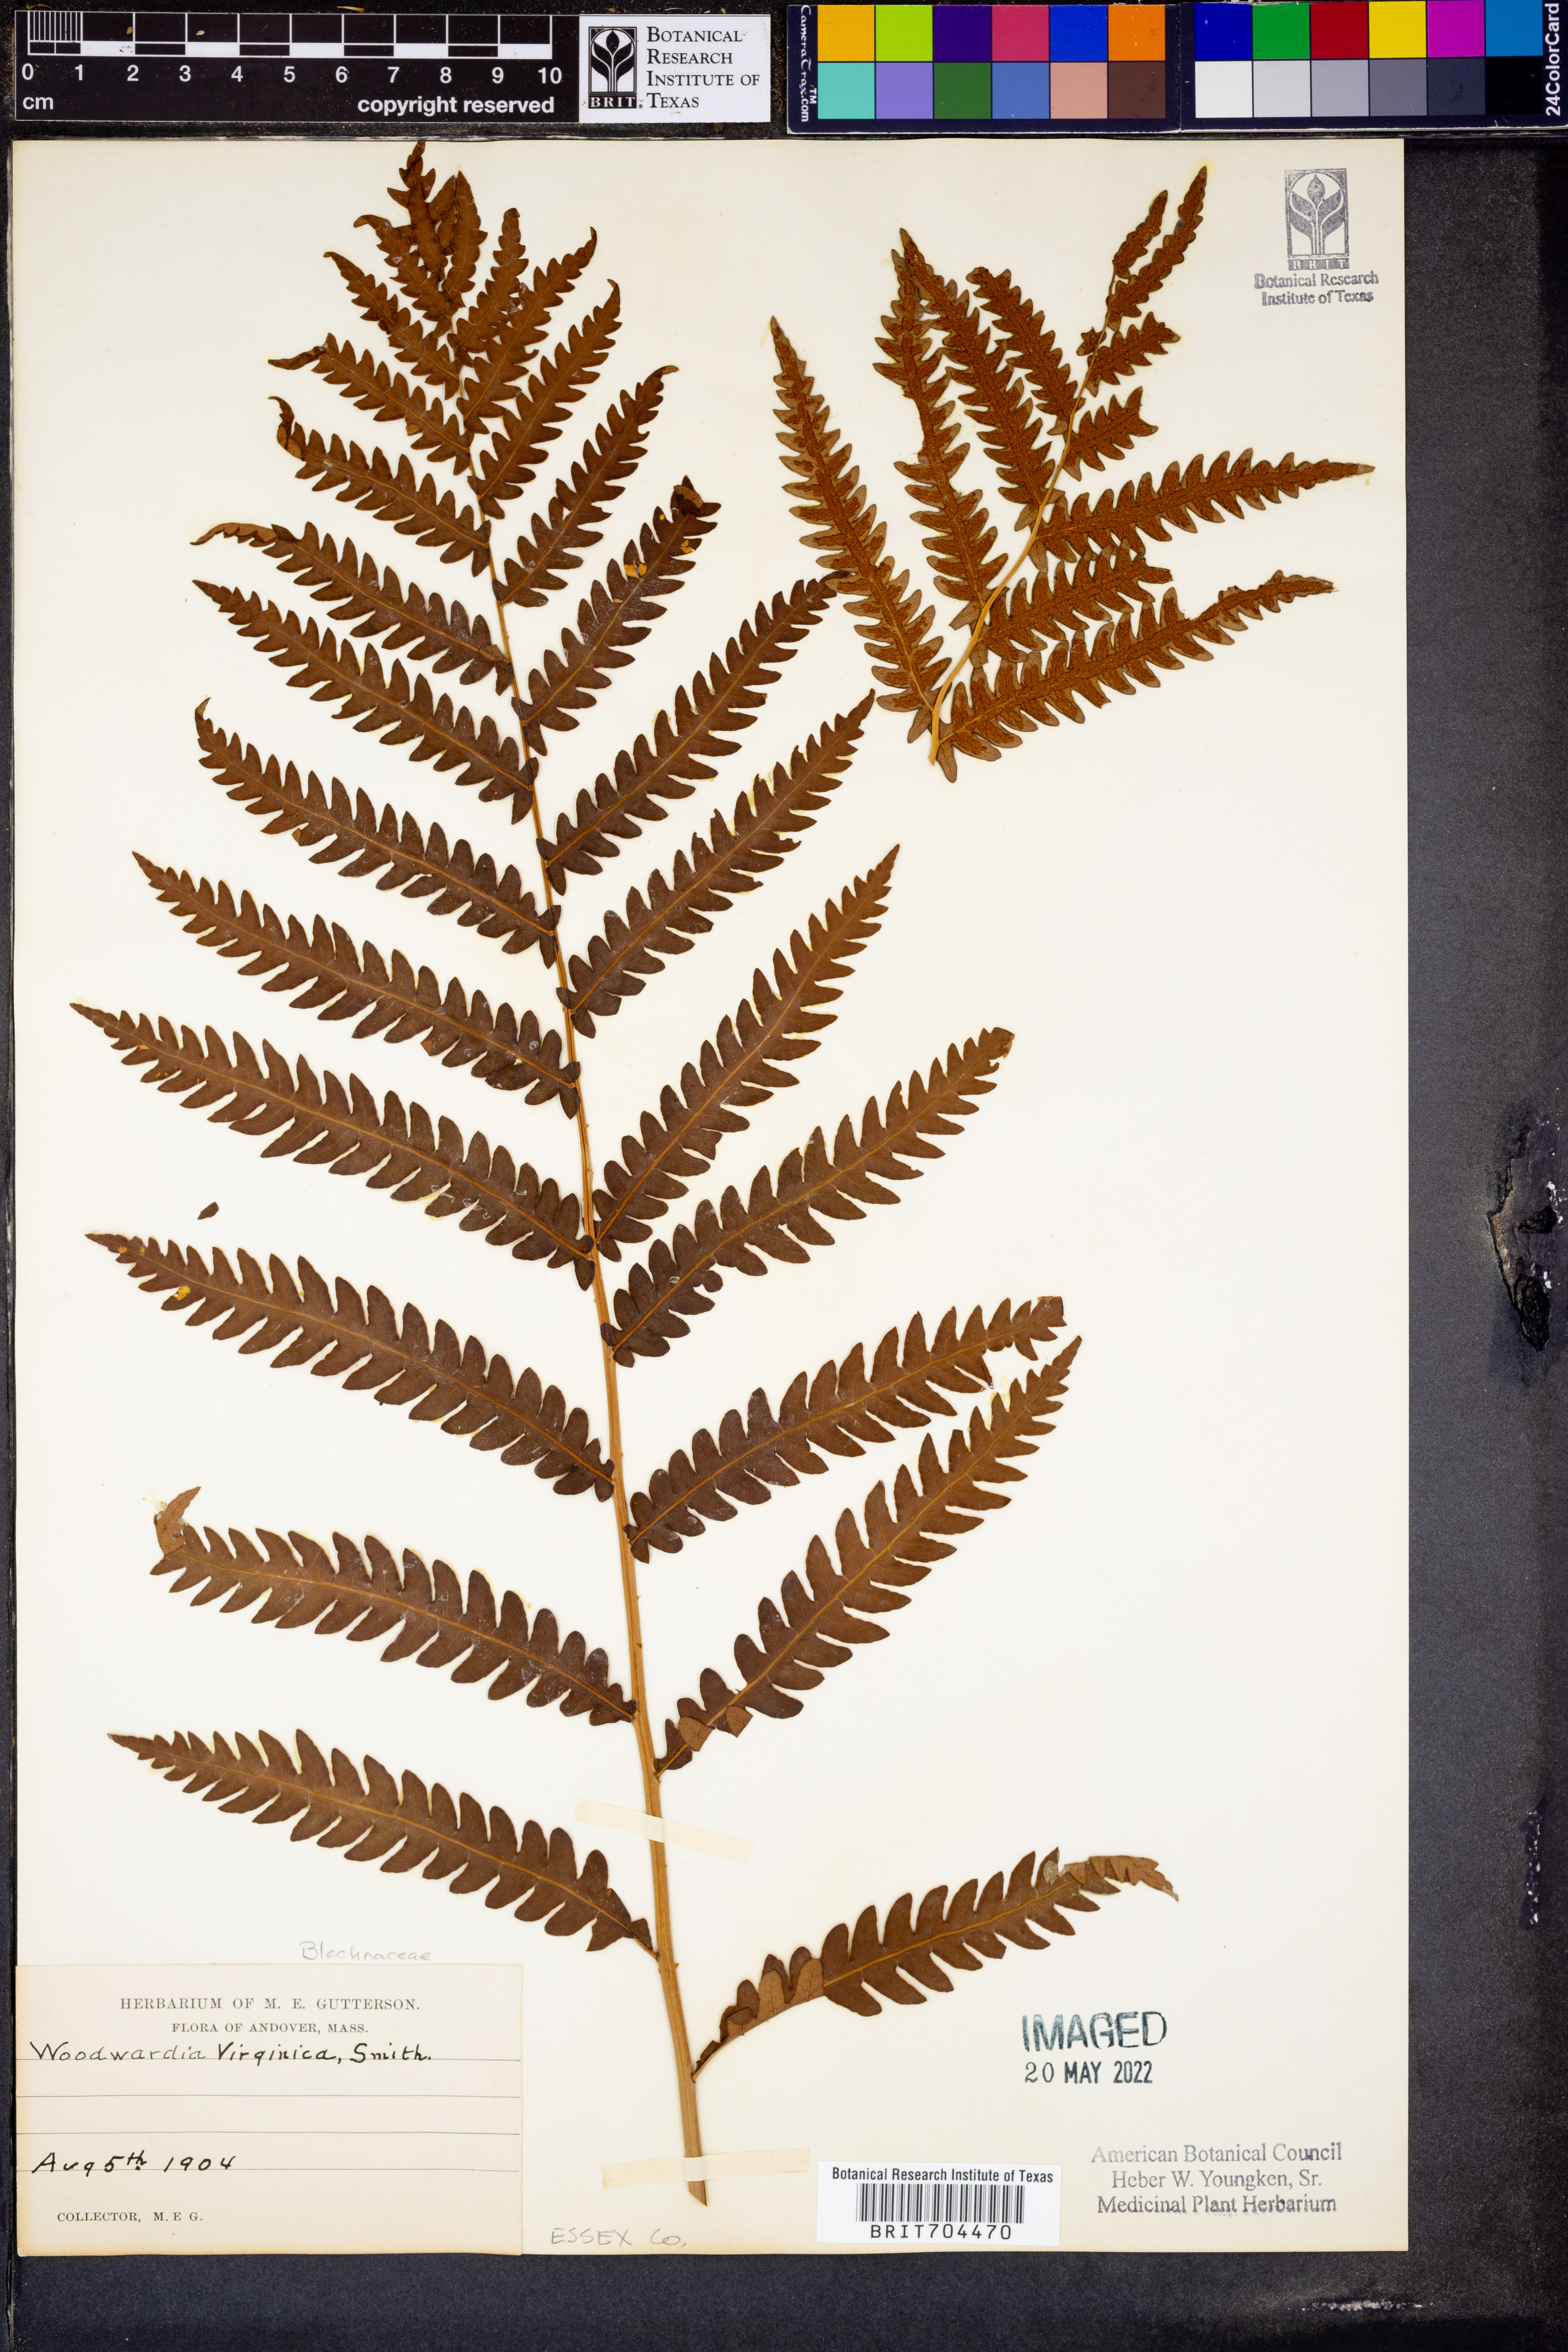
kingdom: Plantae
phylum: Tracheophyta
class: Polypodiopsida
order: Polypodiales
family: Blechnaceae
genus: Anchistea
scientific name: Anchistea virginica
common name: Virginia chain fern
